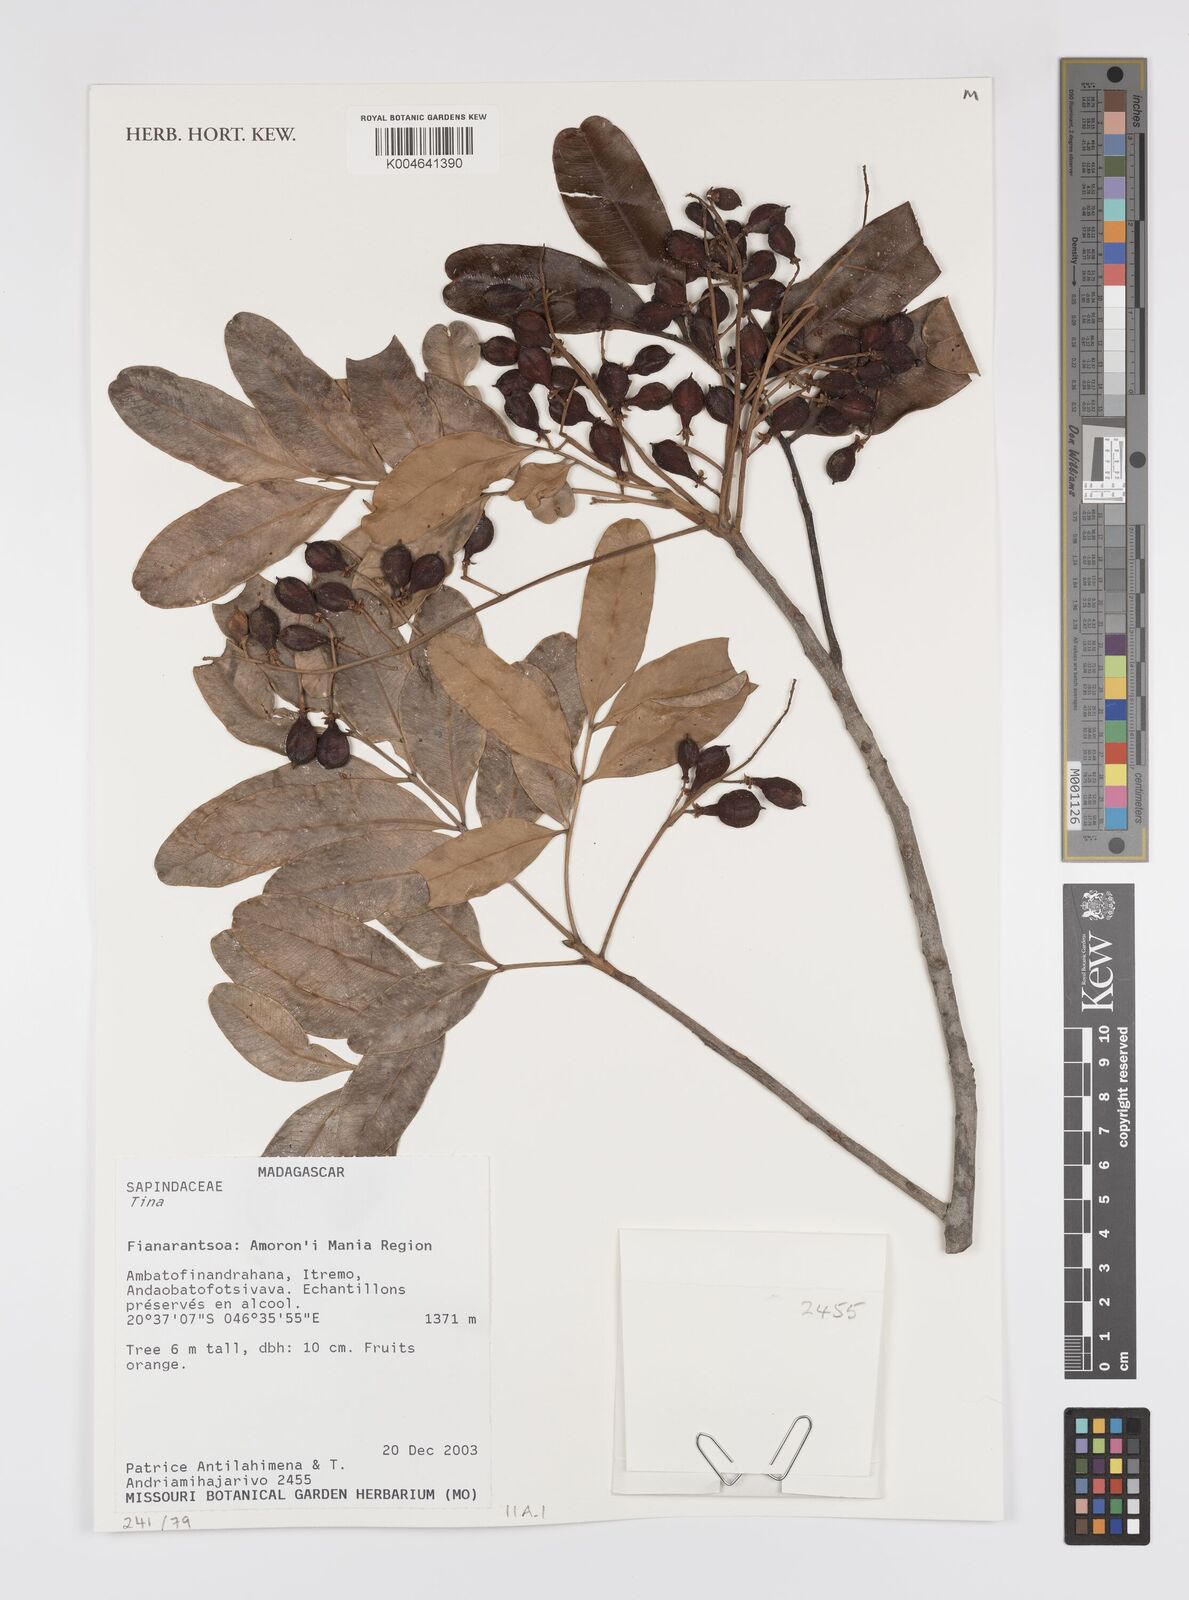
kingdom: Plantae
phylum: Tracheophyta
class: Magnoliopsida
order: Sapindales
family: Sapindaceae
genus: Tina
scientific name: Tina
